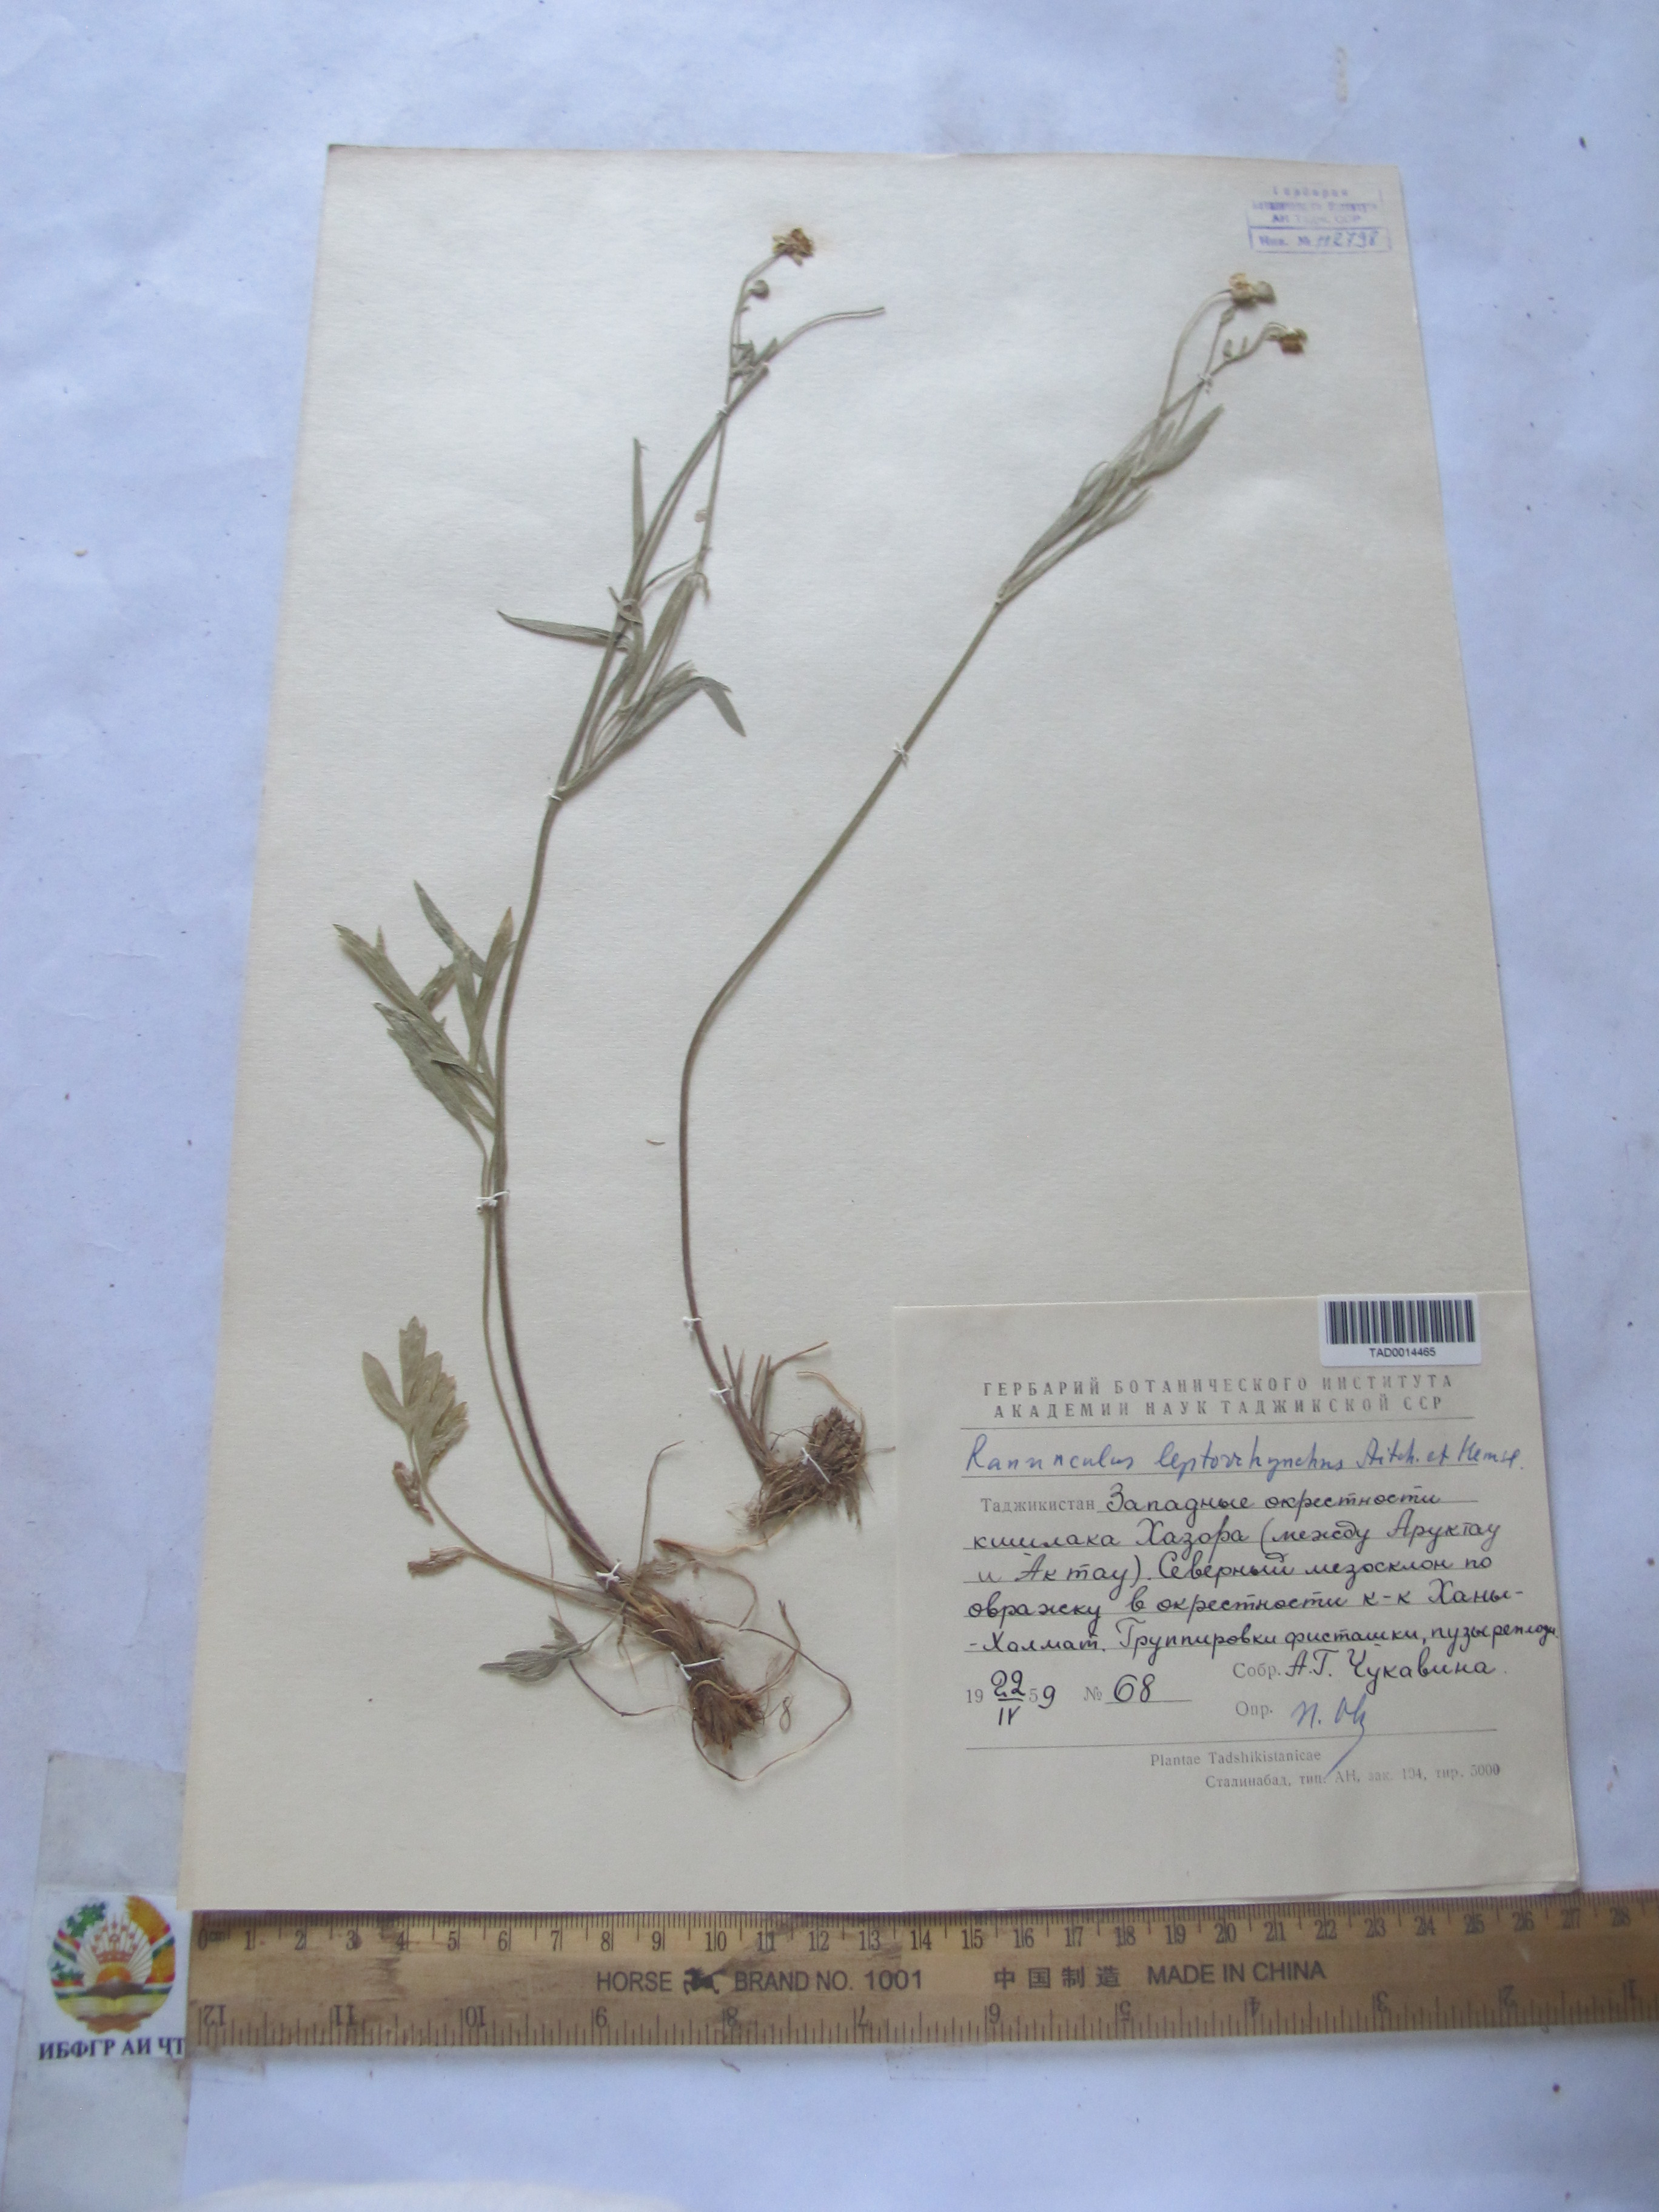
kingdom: Plantae
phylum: Tracheophyta
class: Magnoliopsida
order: Ranunculales
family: Ranunculaceae
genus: Ranunculus
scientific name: Ranunculus leptorrhynchus
